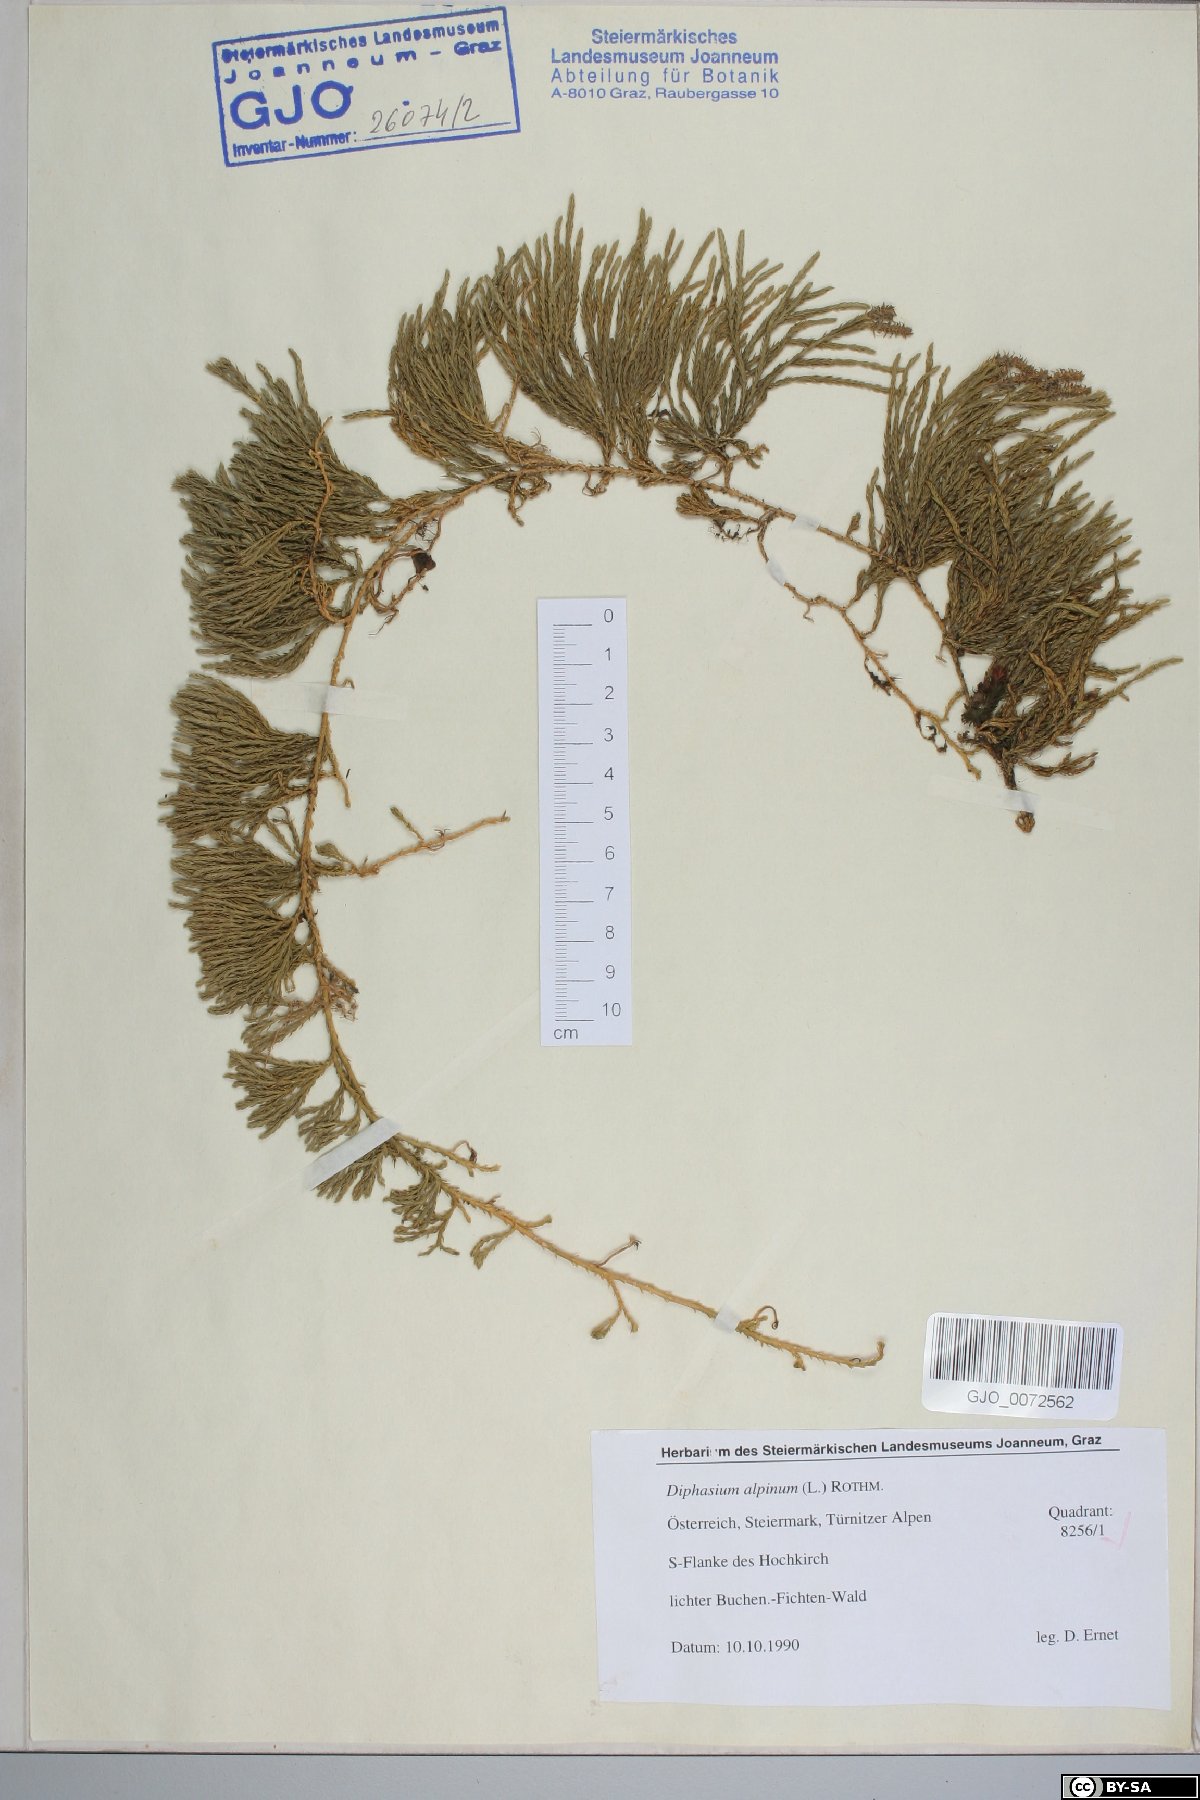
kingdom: Plantae
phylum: Tracheophyta
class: Lycopodiopsida
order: Lycopodiales
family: Lycopodiaceae
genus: Diphasiastrum
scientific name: Diphasiastrum alpinum
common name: Alpine clubmoss
